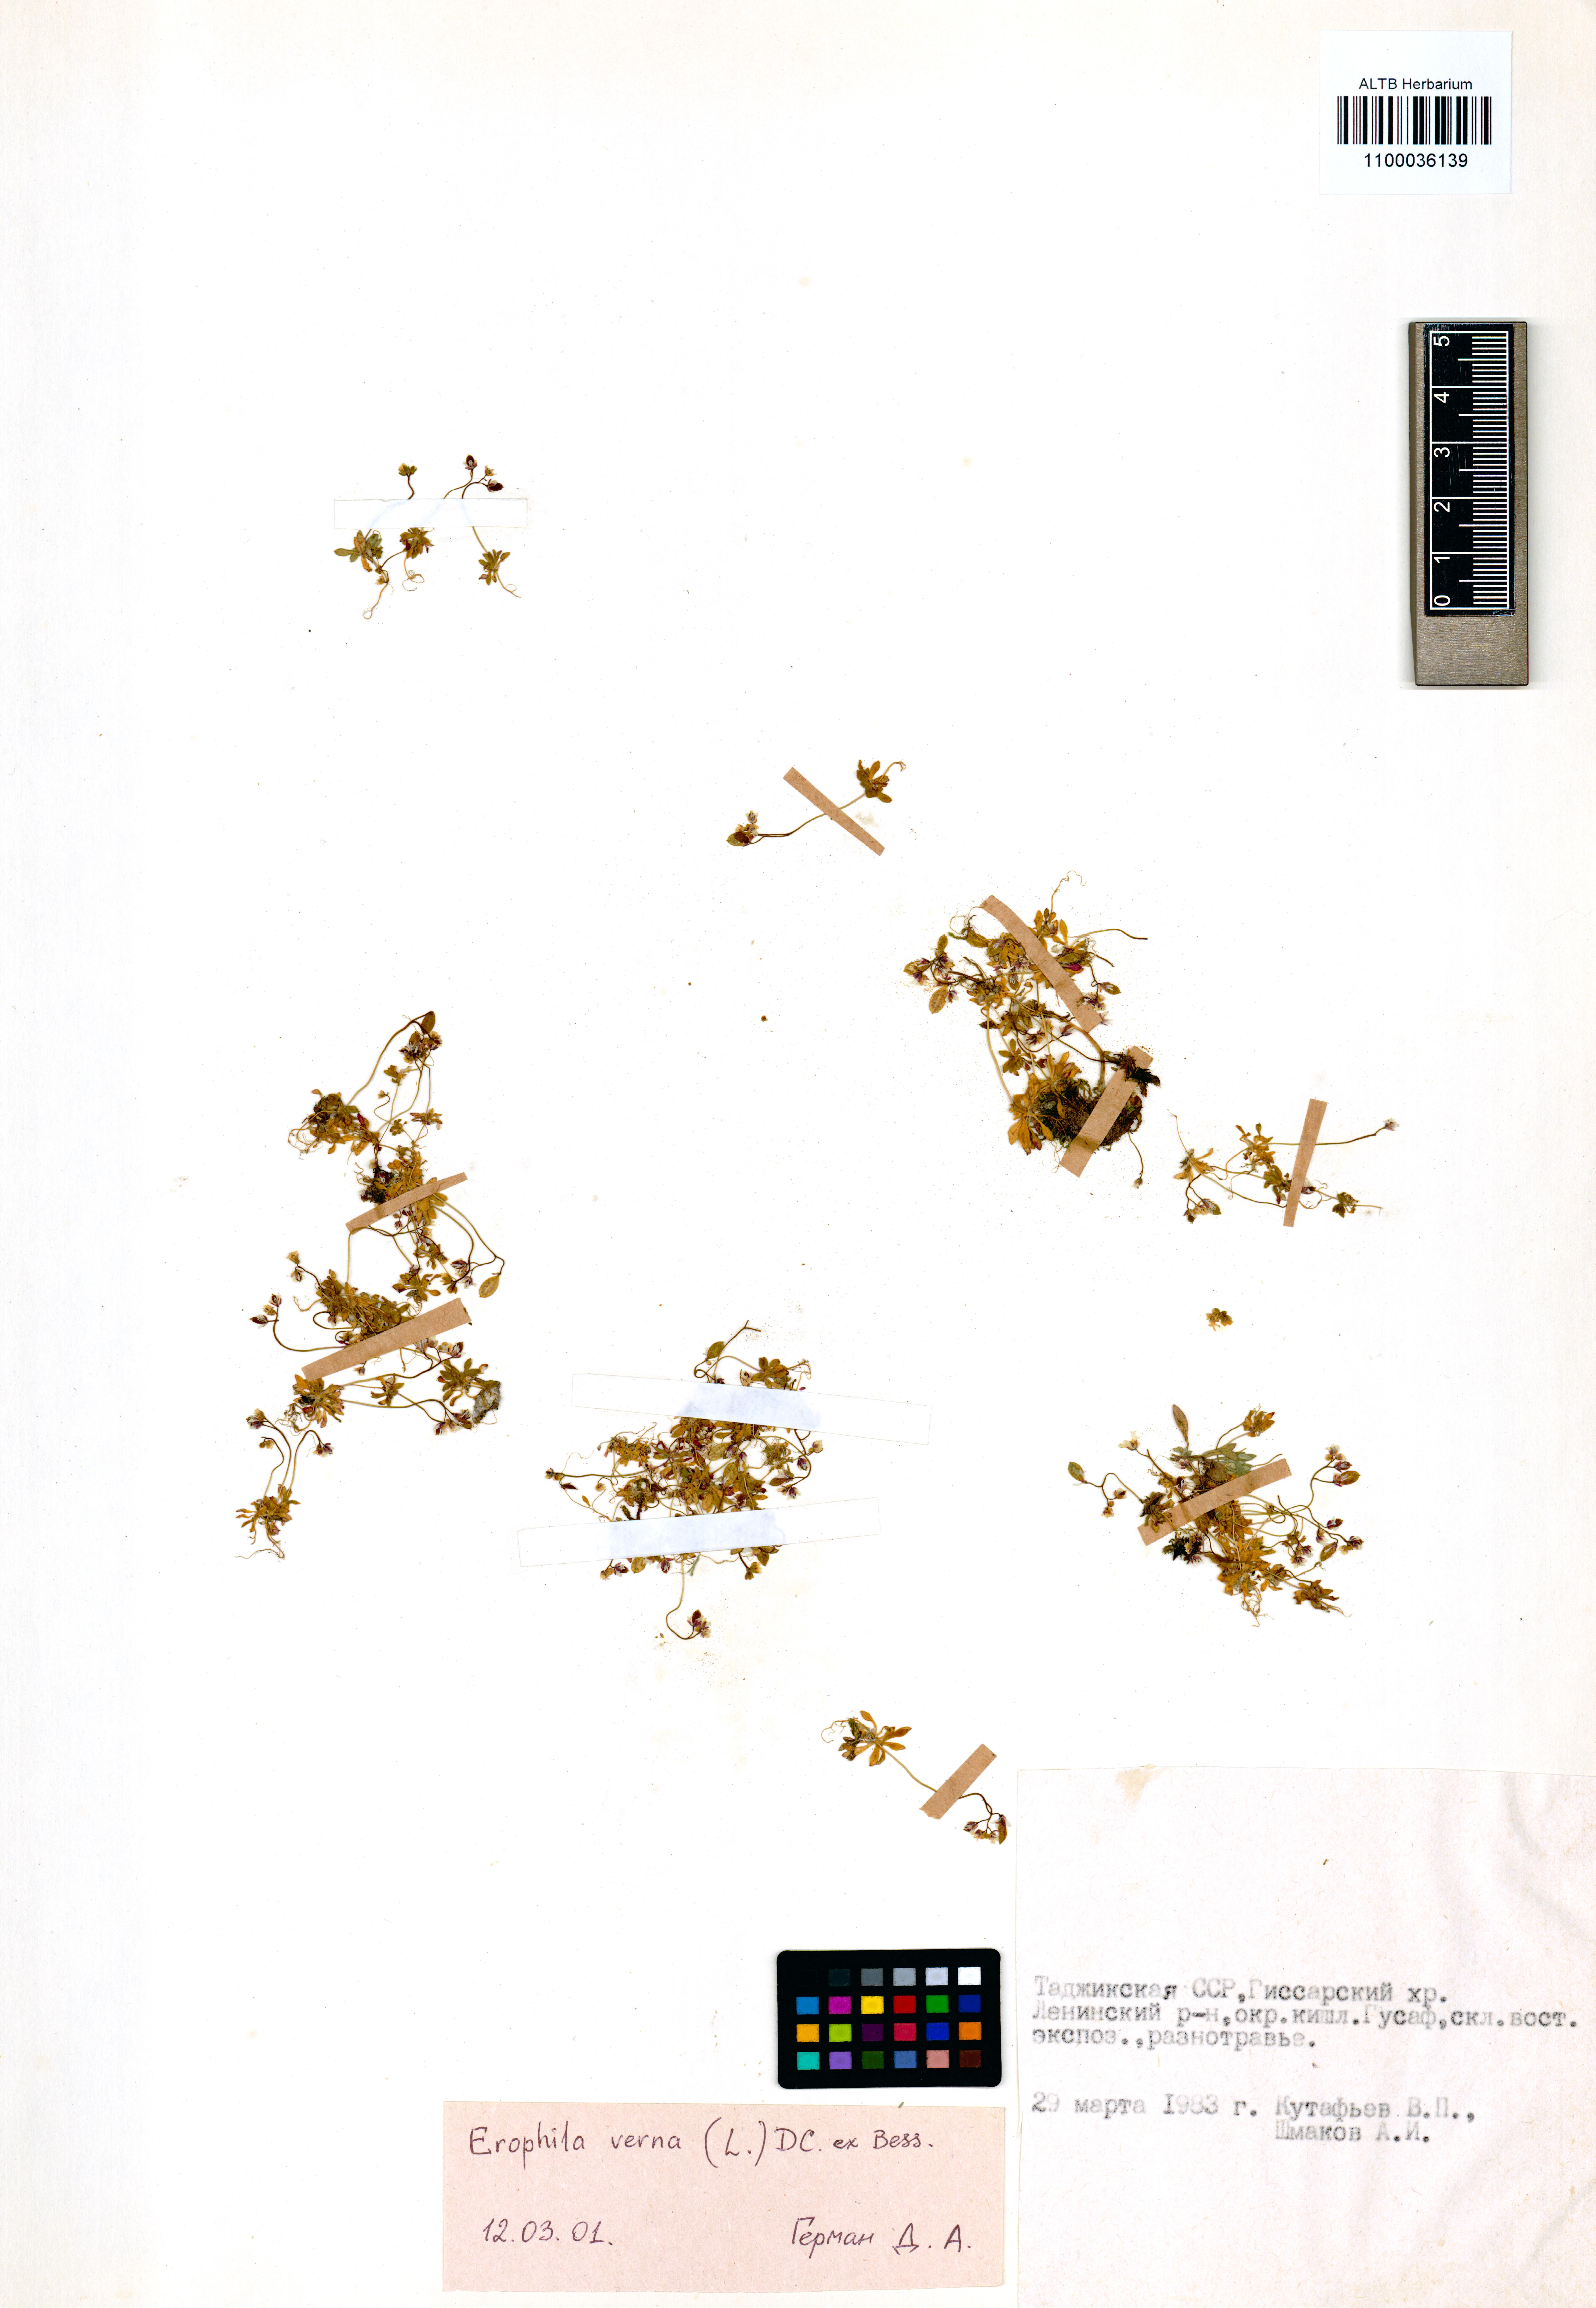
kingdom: Plantae
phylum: Tracheophyta
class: Magnoliopsida
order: Brassicales
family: Brassicaceae
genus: Draba
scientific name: Draba verna
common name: Spring draba
